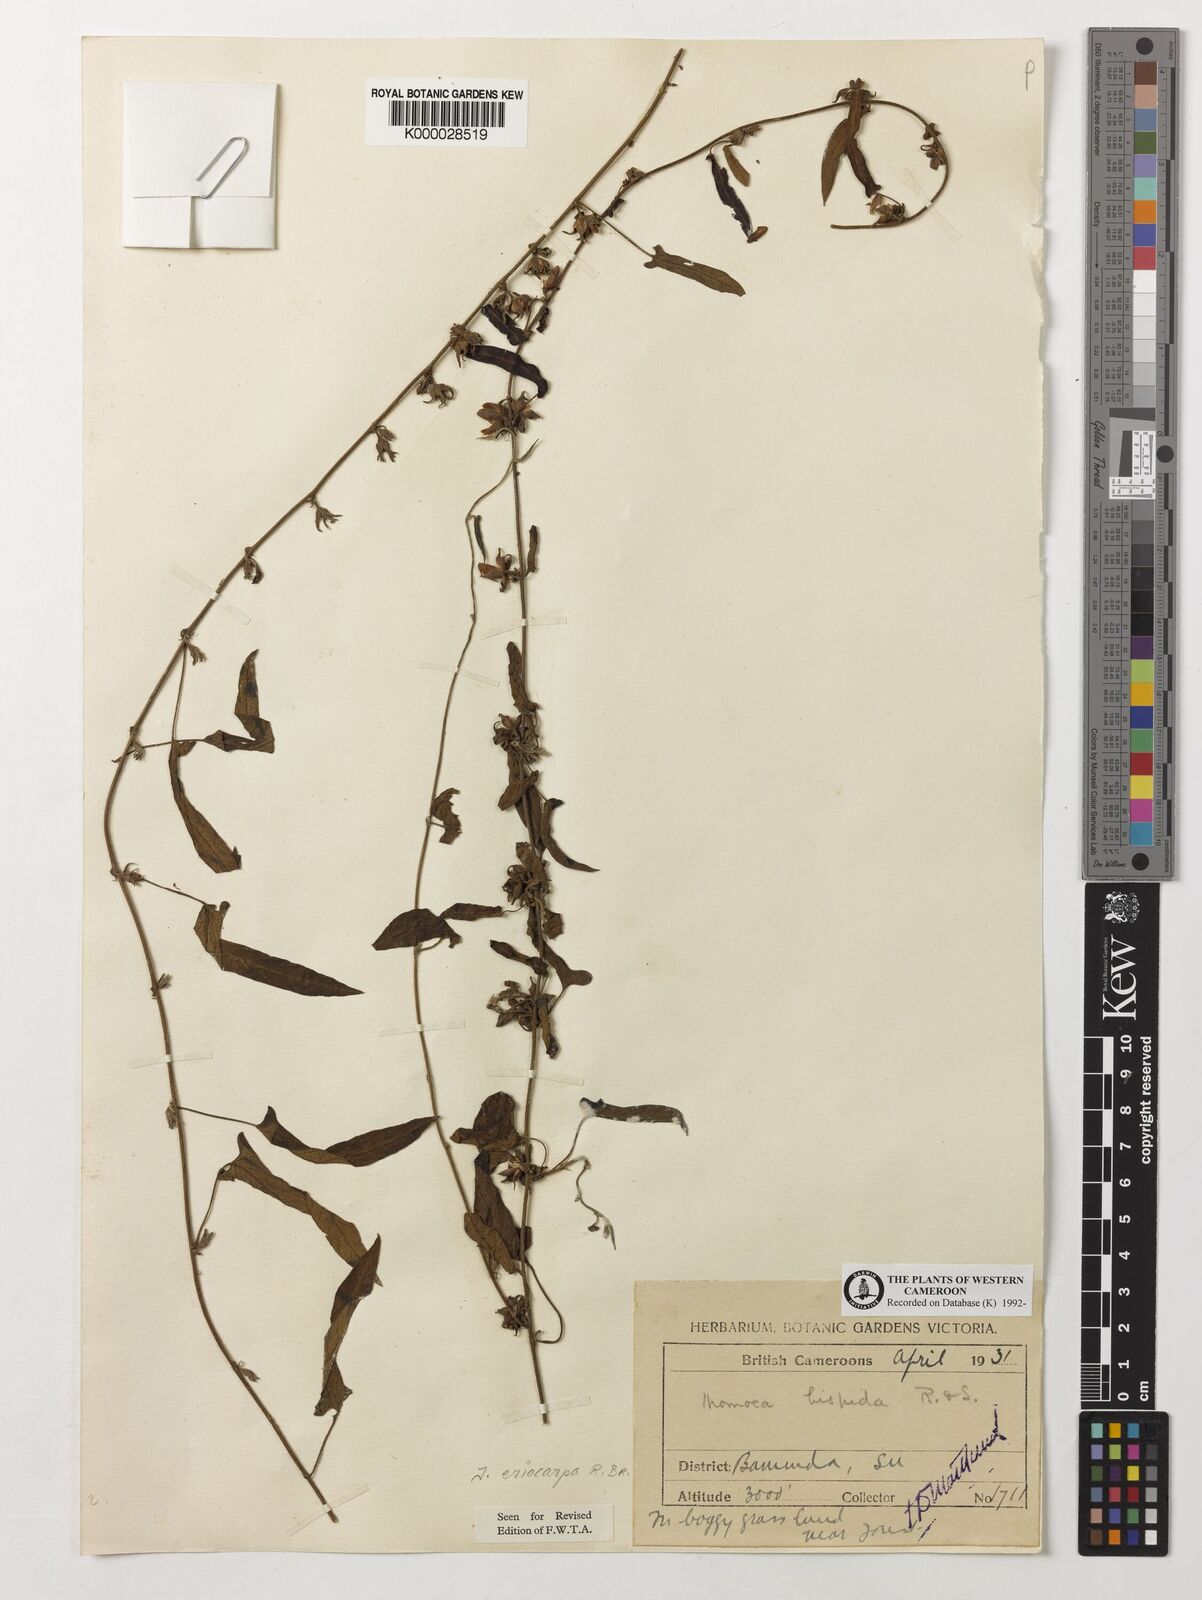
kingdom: Plantae
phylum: Tracheophyta
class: Magnoliopsida
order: Solanales
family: Convolvulaceae
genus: Ipomoea
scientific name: Ipomoea eriocarpa
